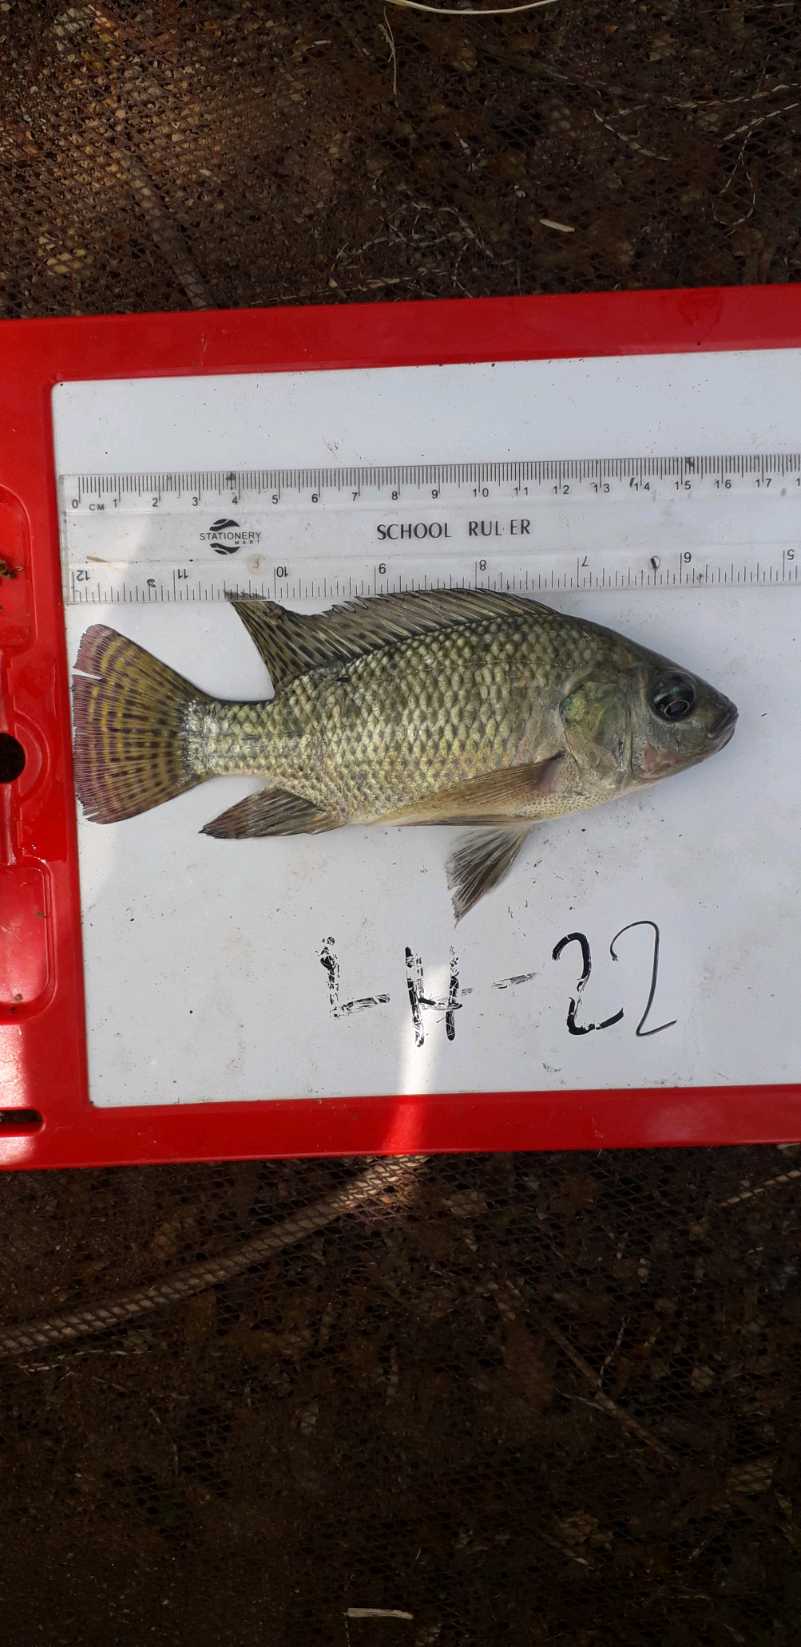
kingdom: Animalia
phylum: Chordata
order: Perciformes
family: Cichlidae
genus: Oreochromis
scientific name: Oreochromis niloticus
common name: Nile tilapia
